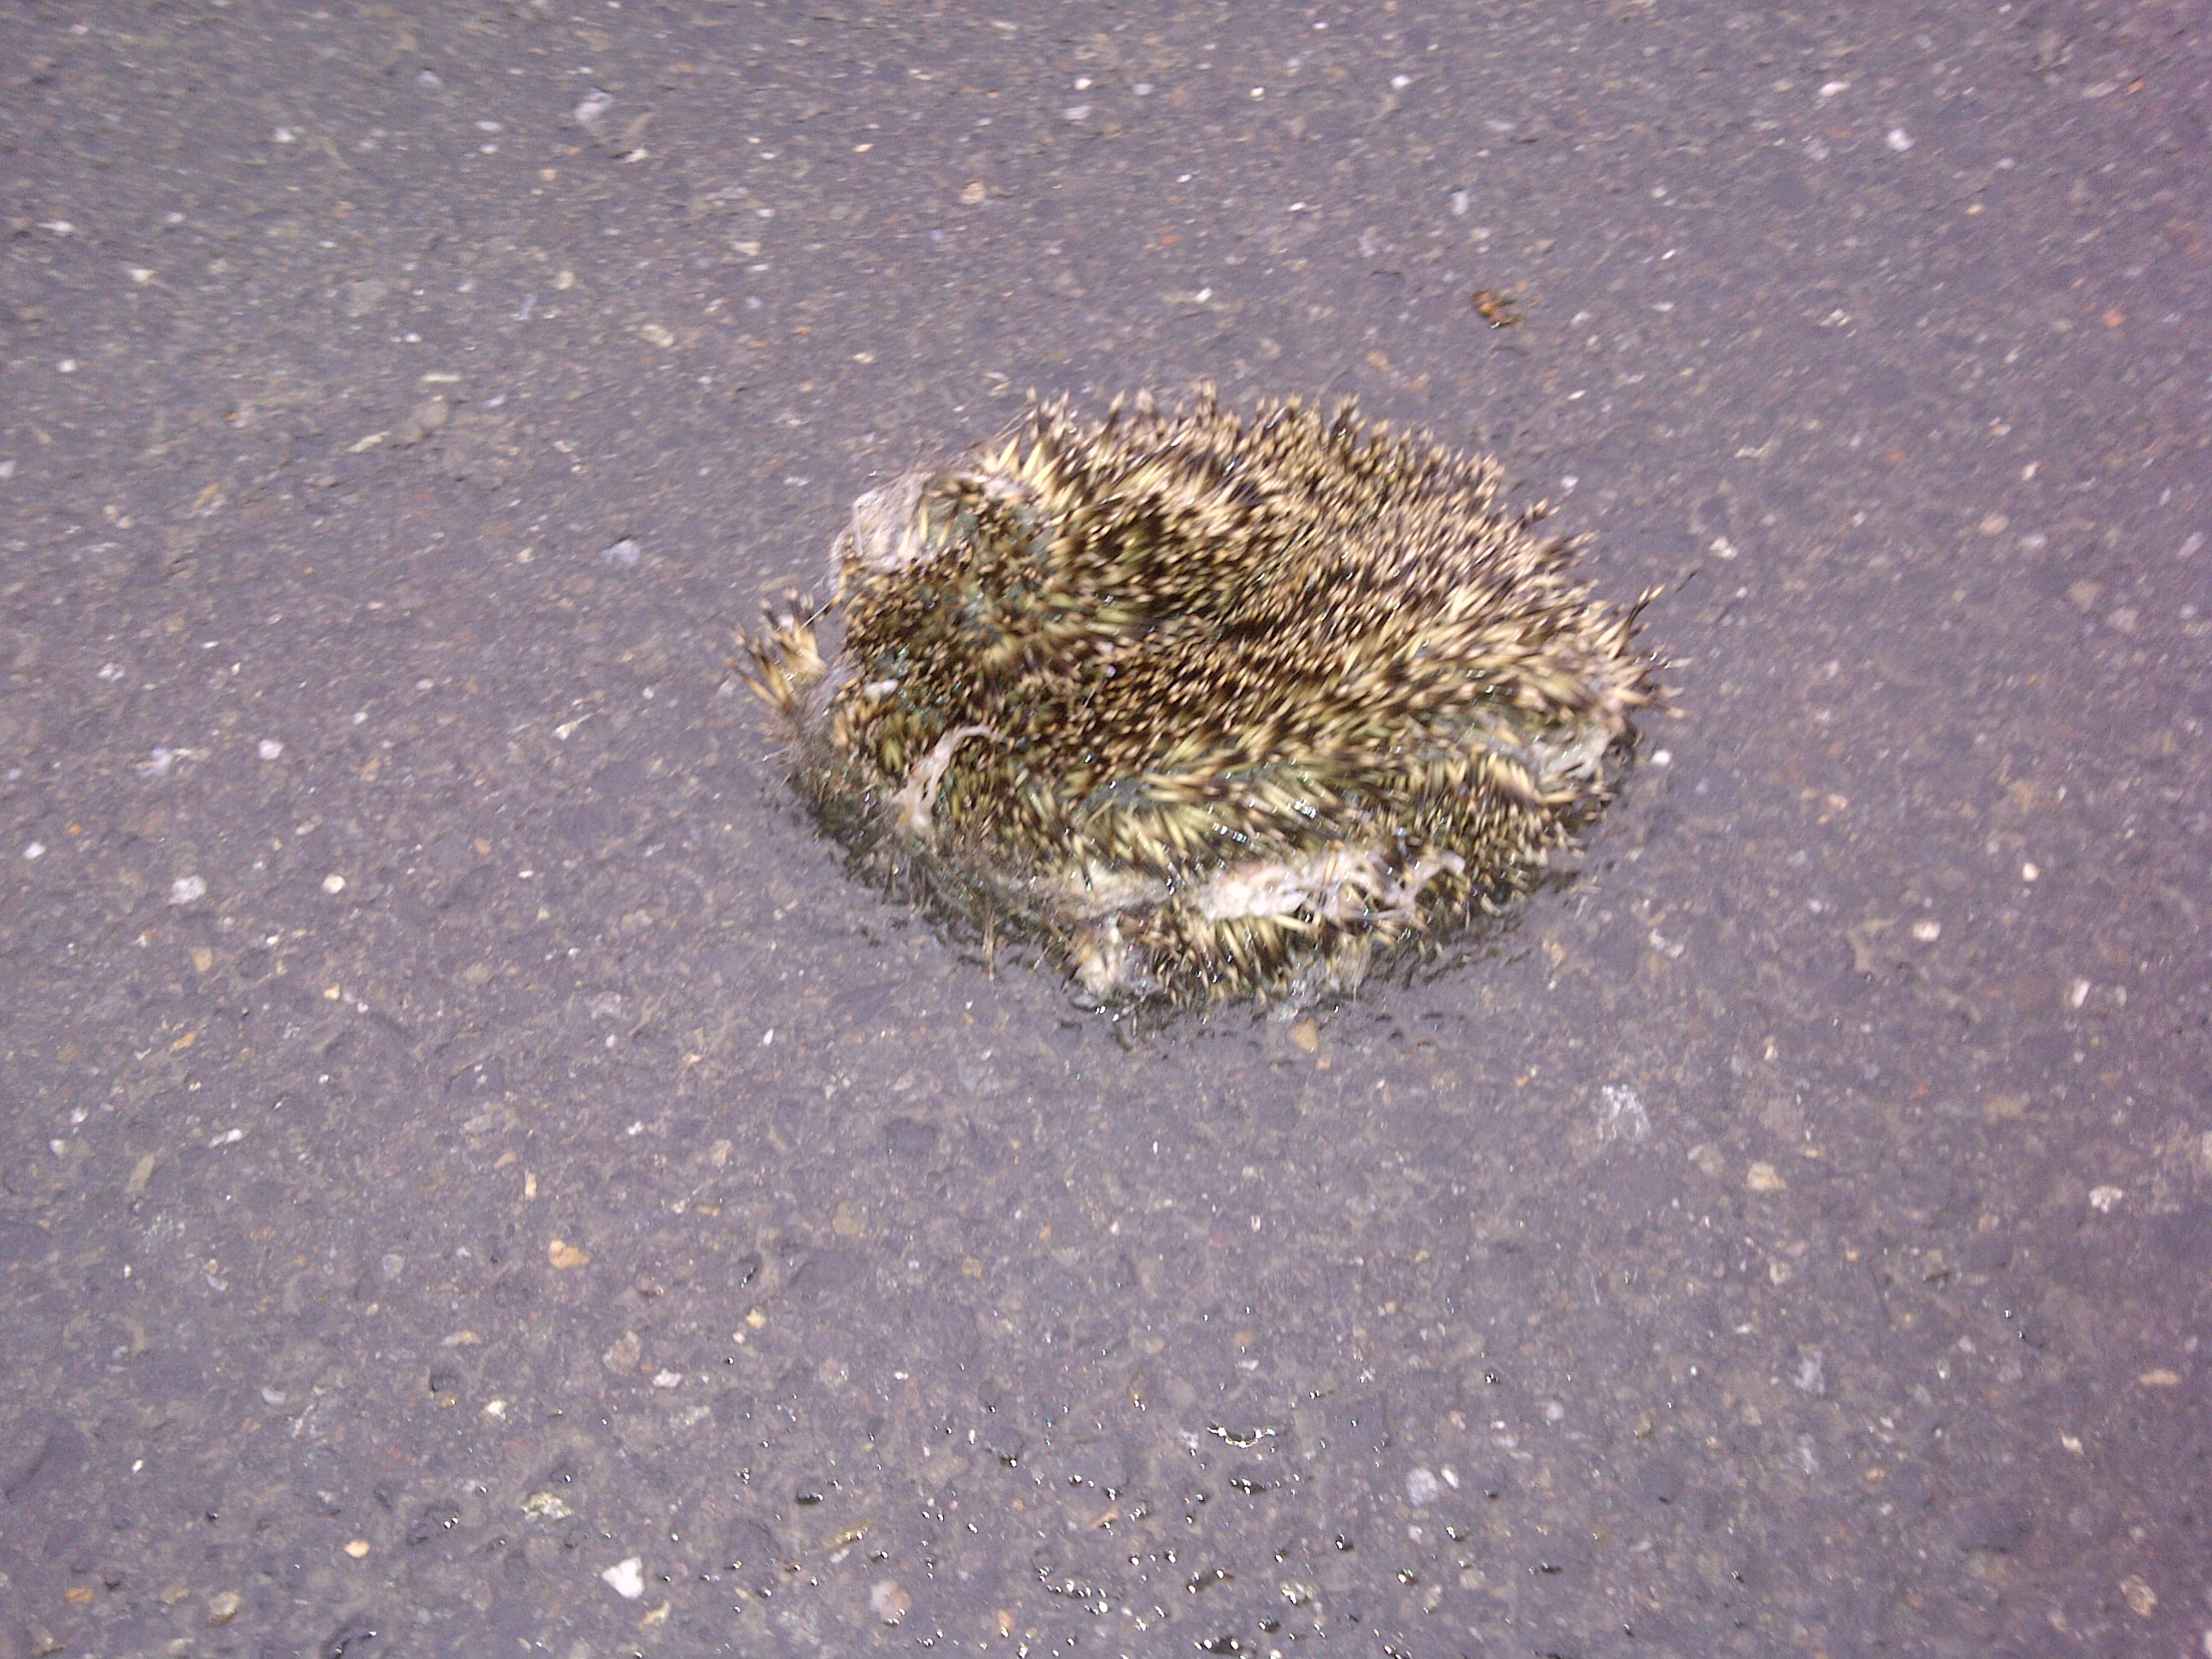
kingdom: Animalia
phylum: Chordata
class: Mammalia
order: Erinaceomorpha
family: Erinaceidae
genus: Erinaceus
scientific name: Erinaceus
